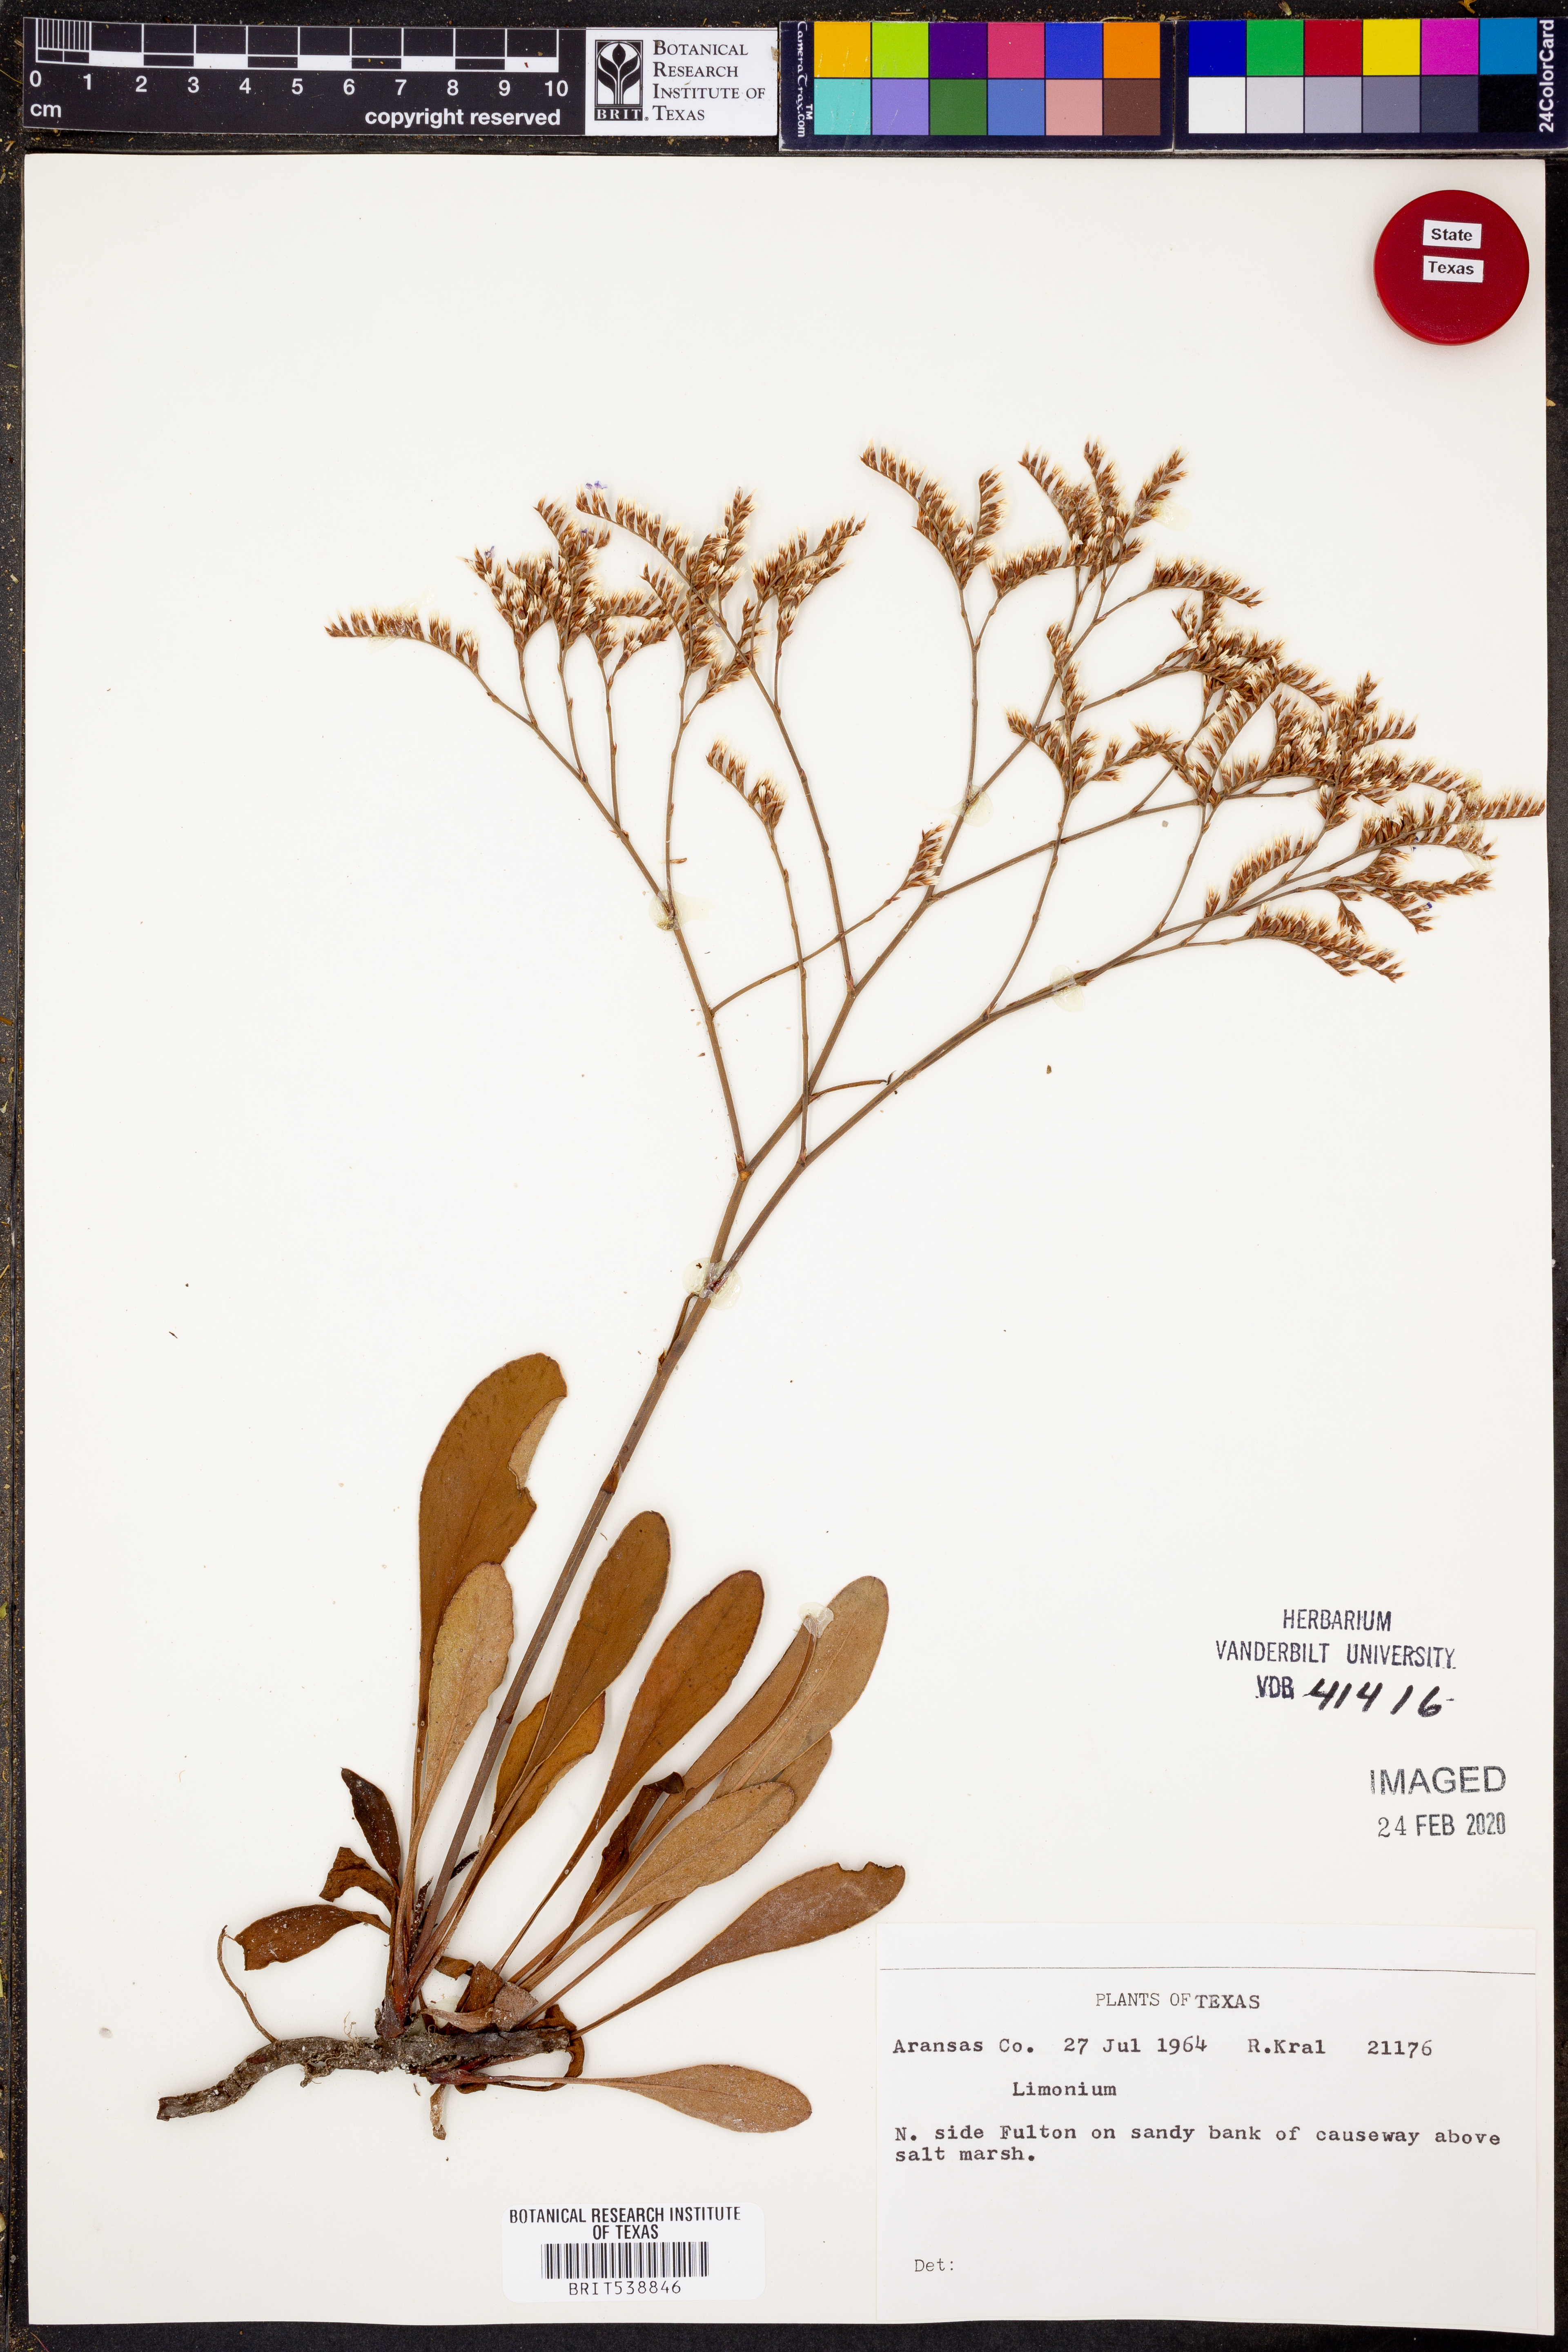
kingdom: Plantae
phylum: Tracheophyta
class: Magnoliopsida
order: Caryophyllales
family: Plumbaginaceae
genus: Limonium
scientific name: Limonium
